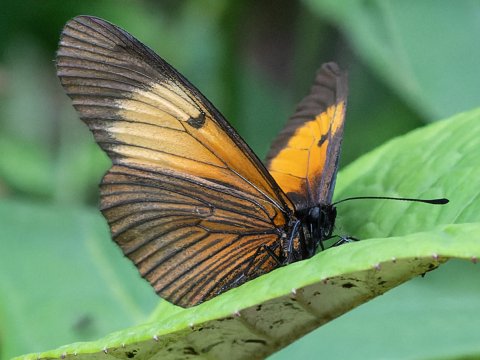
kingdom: Animalia
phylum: Arthropoda
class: Insecta
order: Lepidoptera
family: Nymphalidae
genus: Actinote
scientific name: Actinote stratonice
